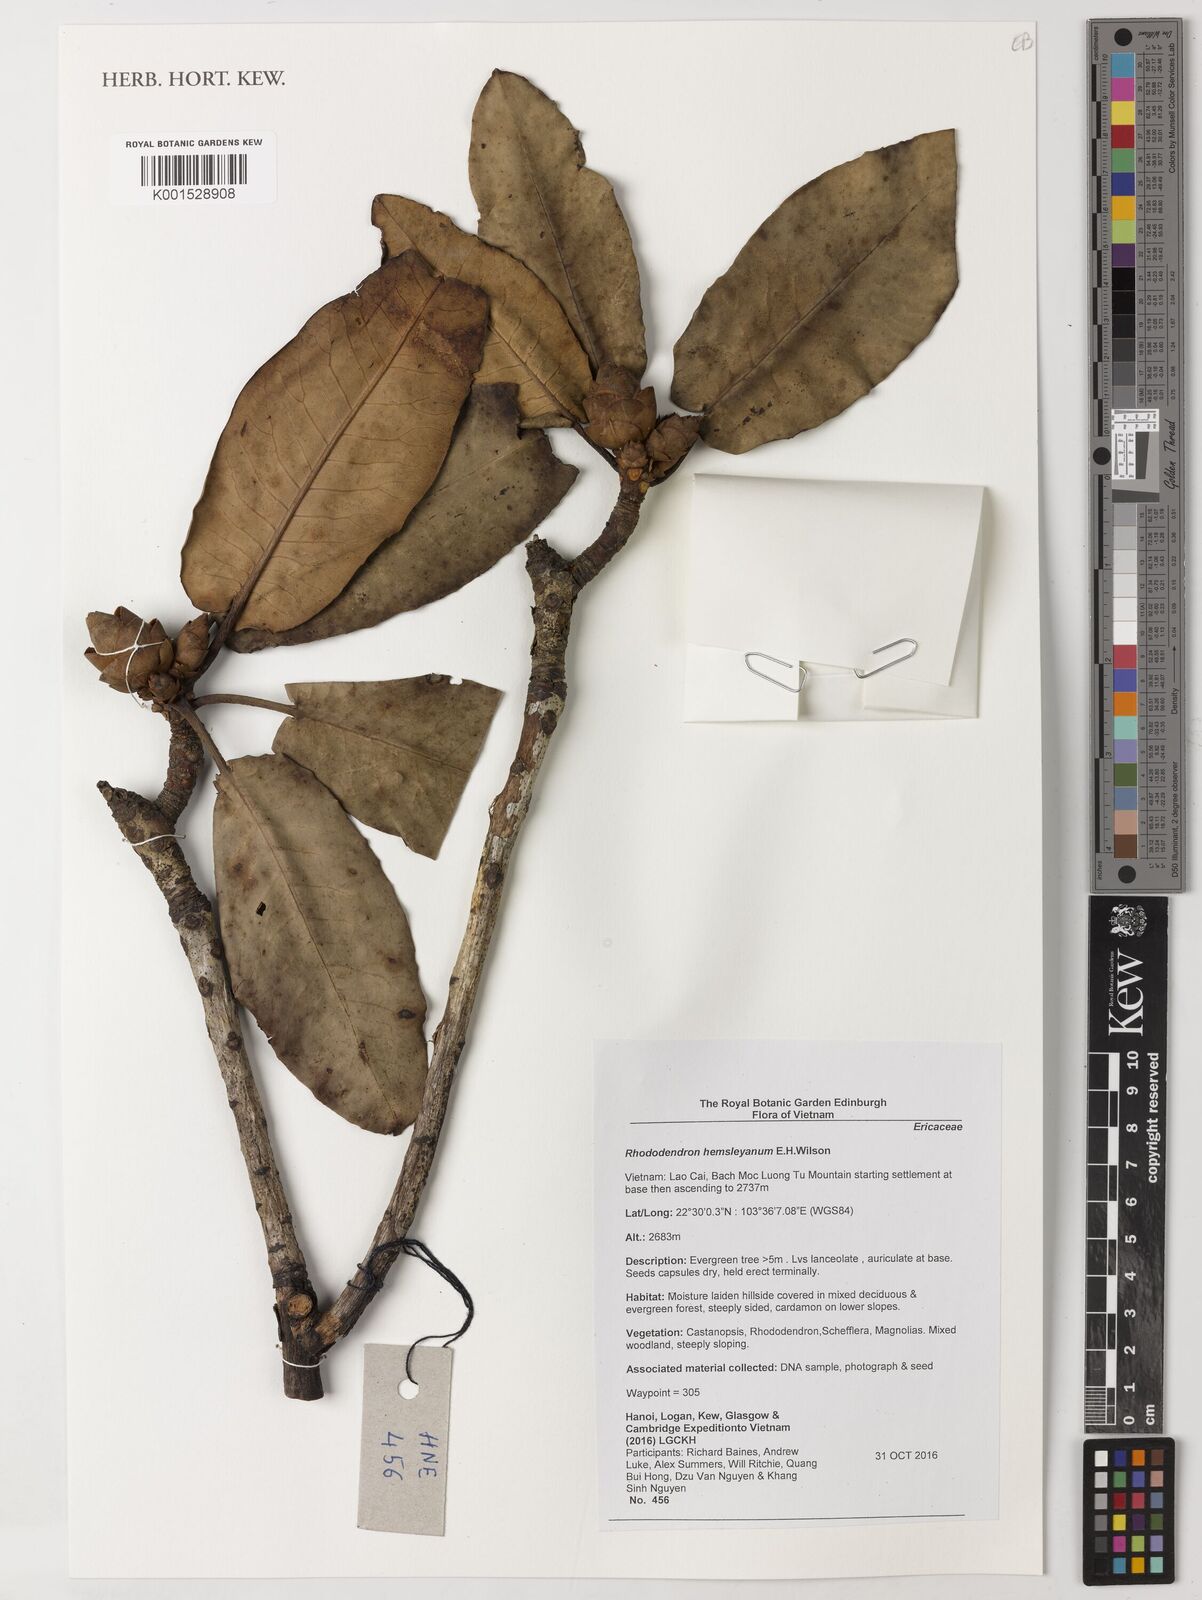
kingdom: Plantae
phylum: Tracheophyta
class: Magnoliopsida
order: Ericales
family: Ericaceae
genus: Rhododendron
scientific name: Rhododendron hemsleyanum
